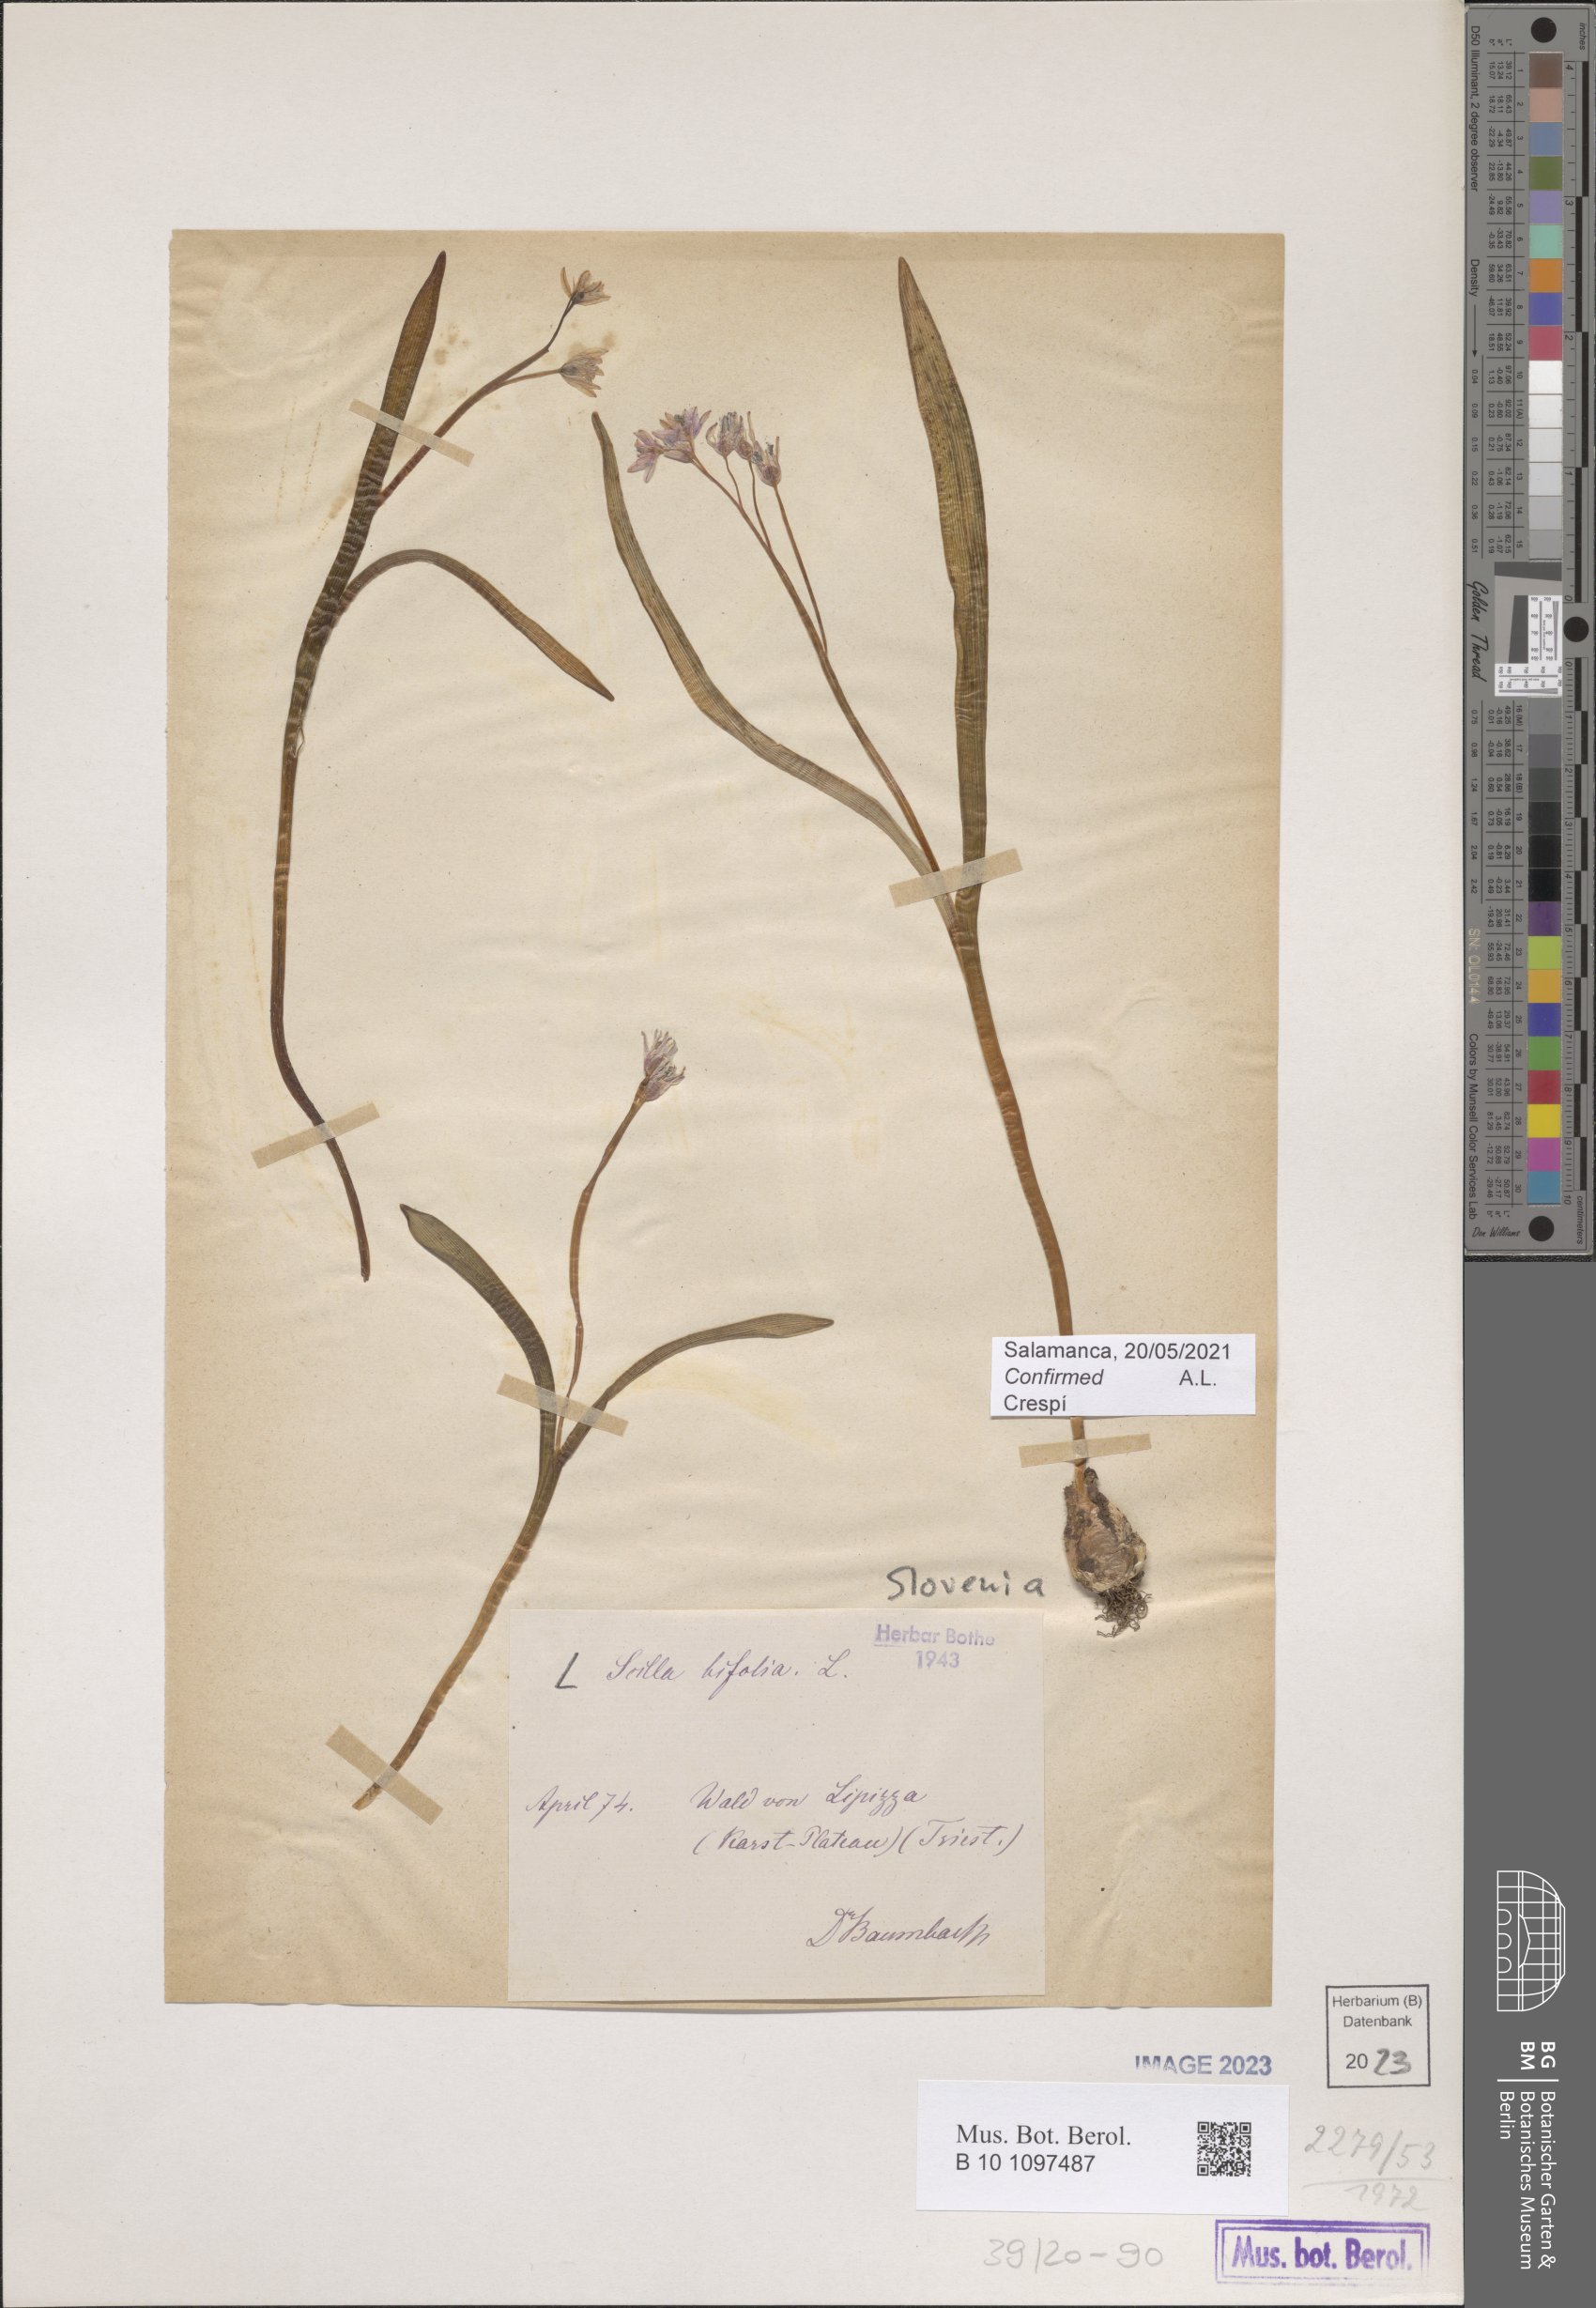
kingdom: Plantae
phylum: Tracheophyta
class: Liliopsida
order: Asparagales
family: Asparagaceae
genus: Scilla
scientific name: Scilla bifolia
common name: Alpine squill
